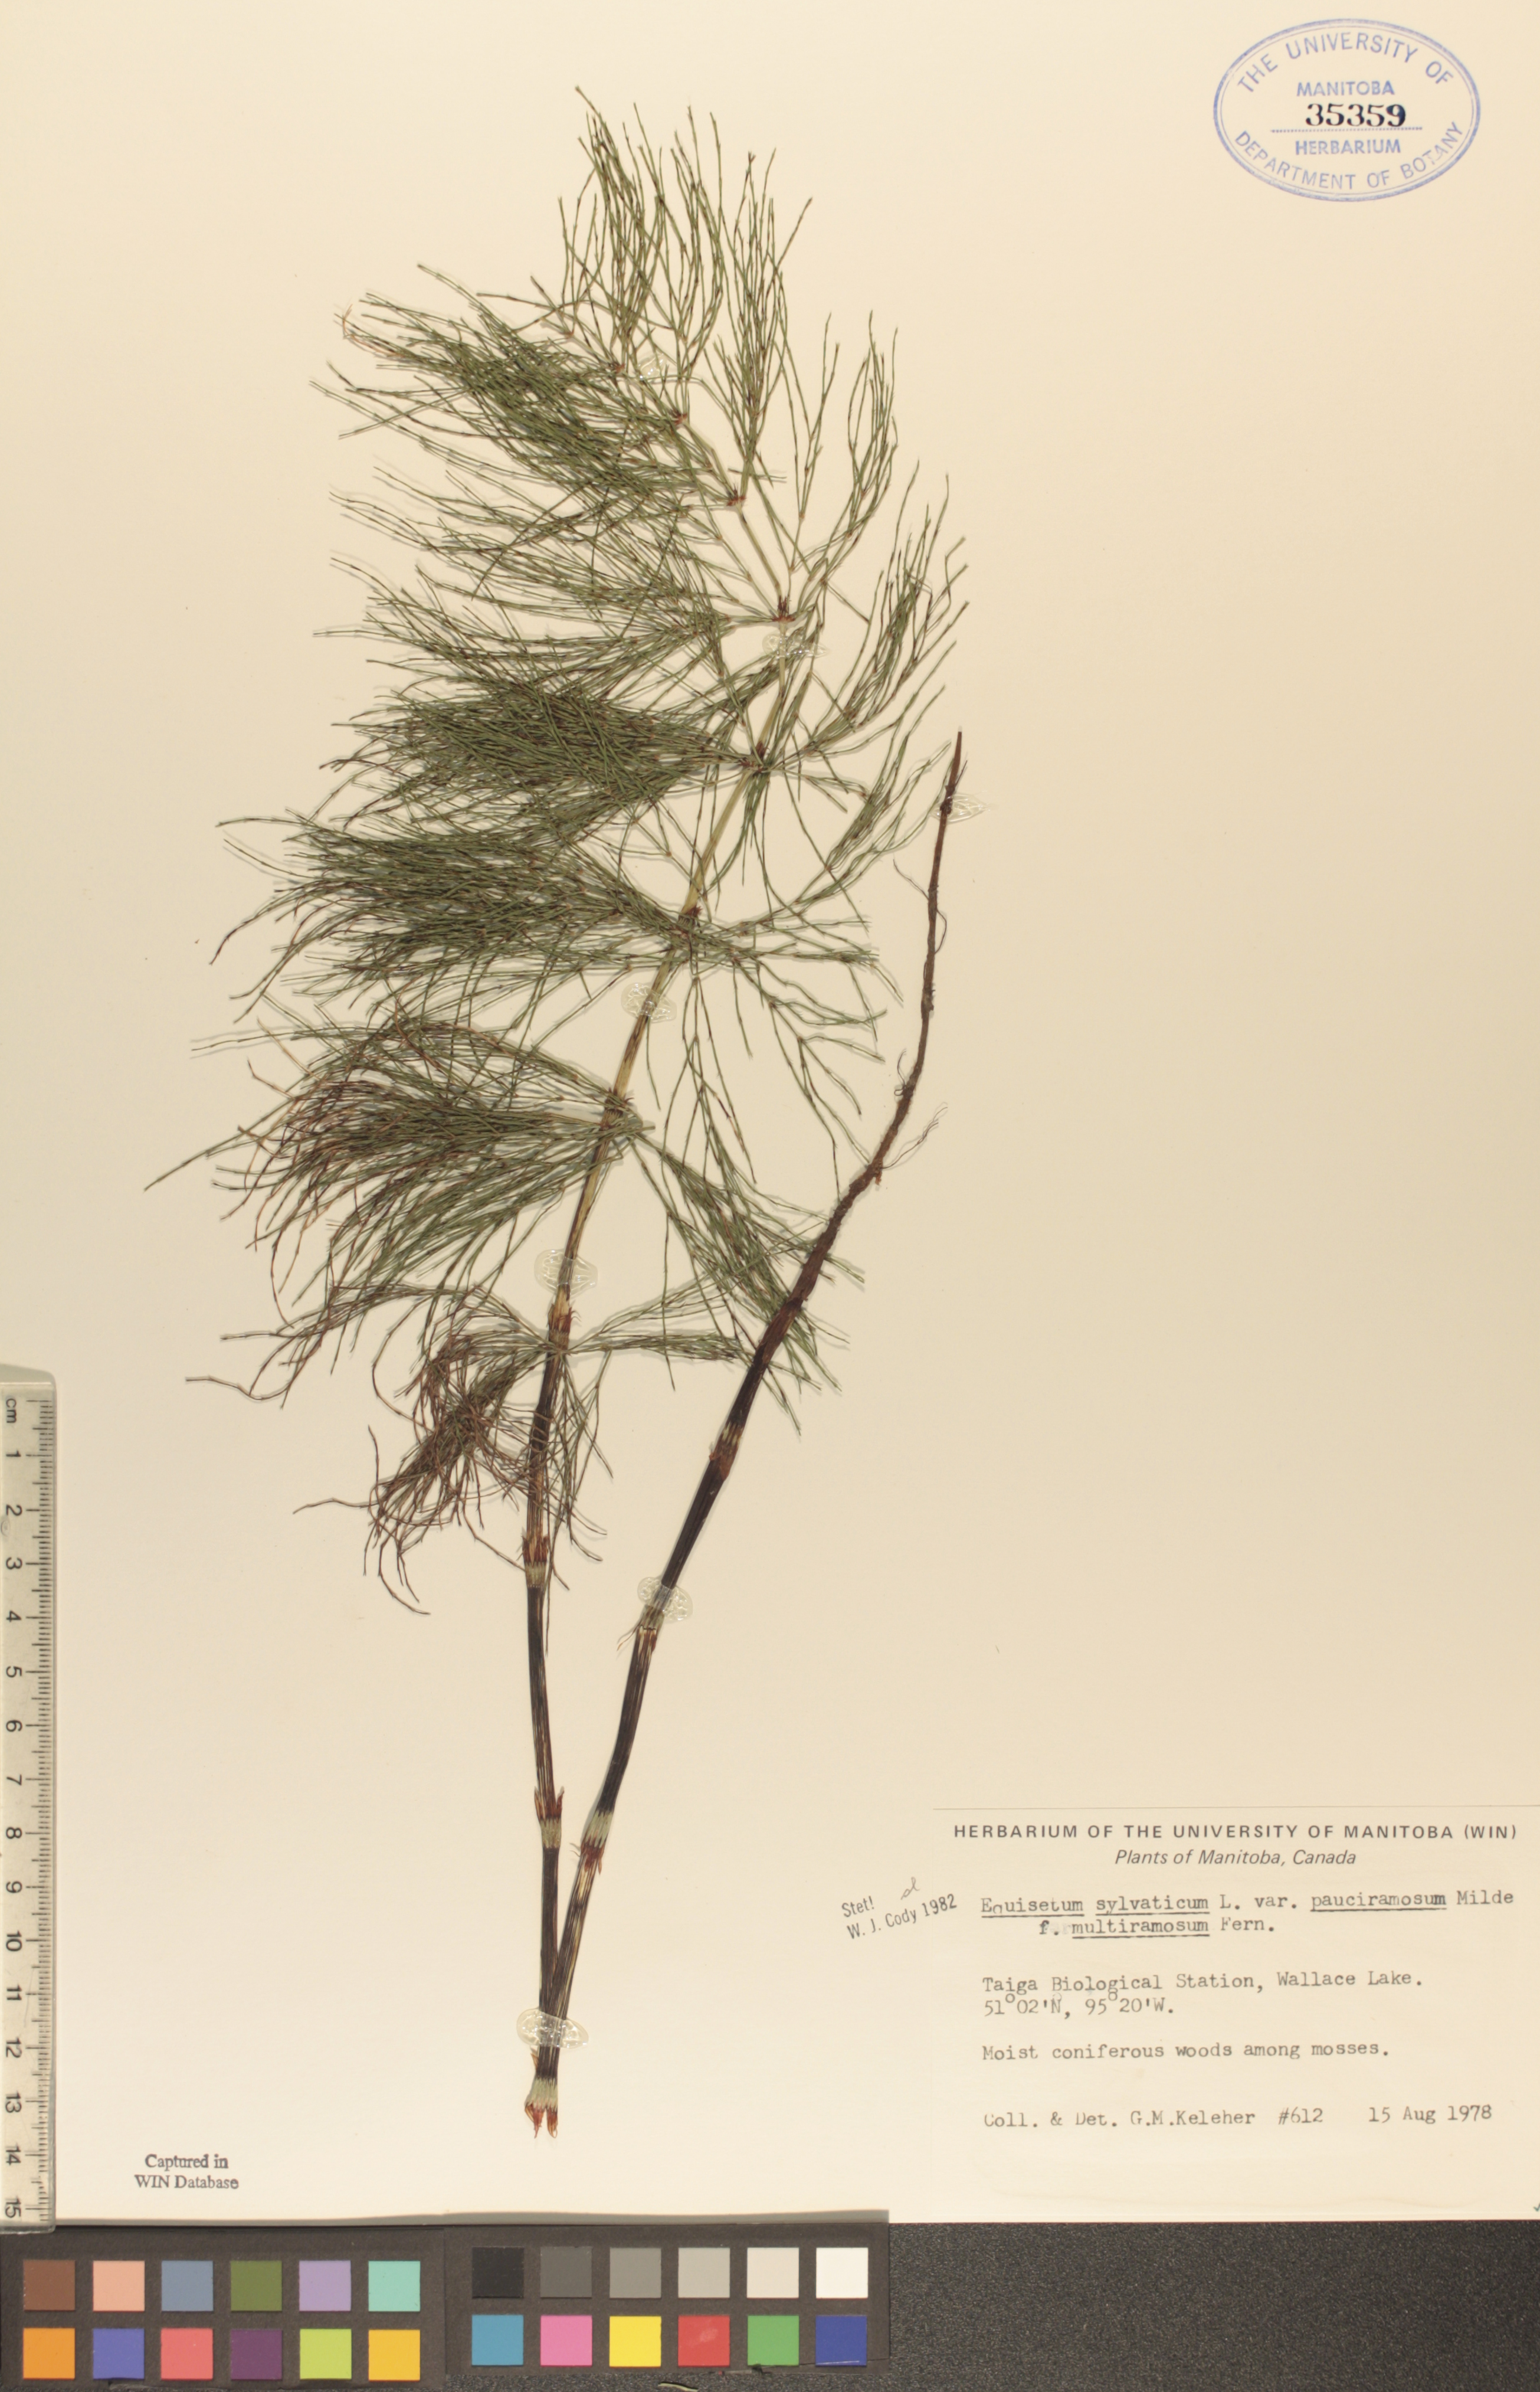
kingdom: Plantae
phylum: Tracheophyta
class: Polypodiopsida
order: Equisetales
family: Equisetaceae
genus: Equisetum
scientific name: Equisetum sylvaticum
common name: Wood horsetail
